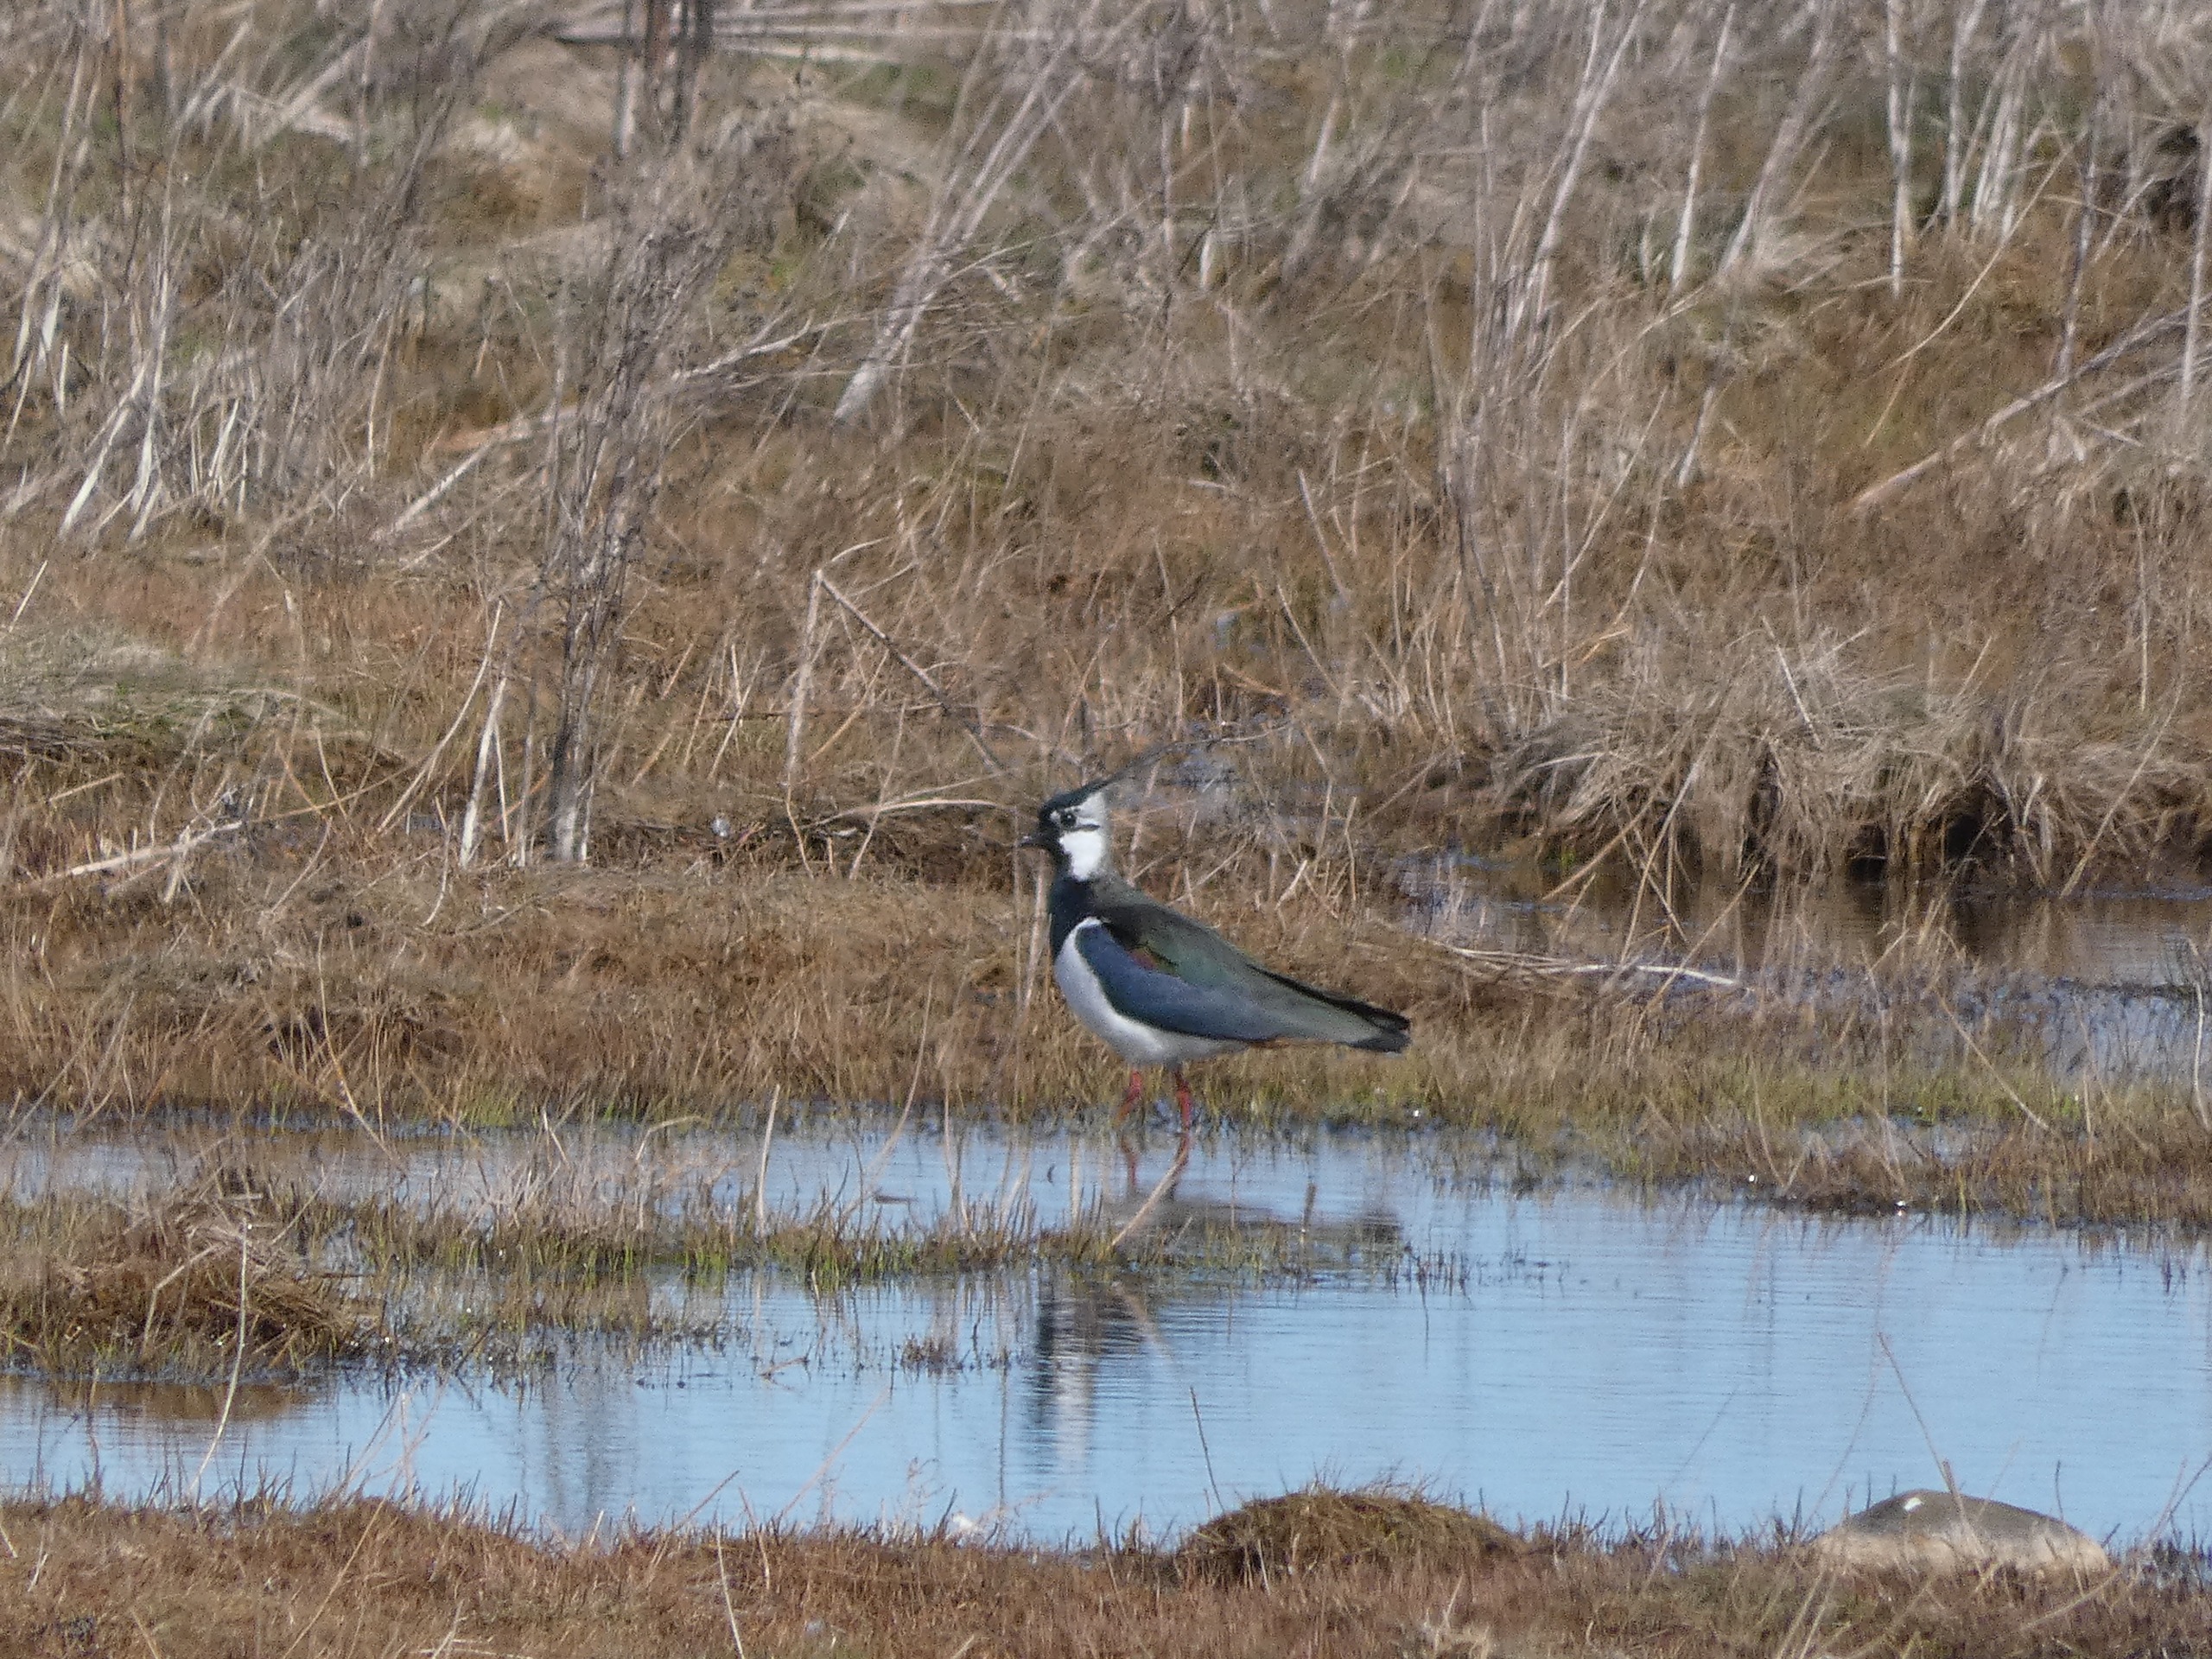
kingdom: Animalia
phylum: Chordata
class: Aves
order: Charadriiformes
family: Charadriidae
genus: Vanellus
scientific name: Vanellus vanellus
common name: Vibe
